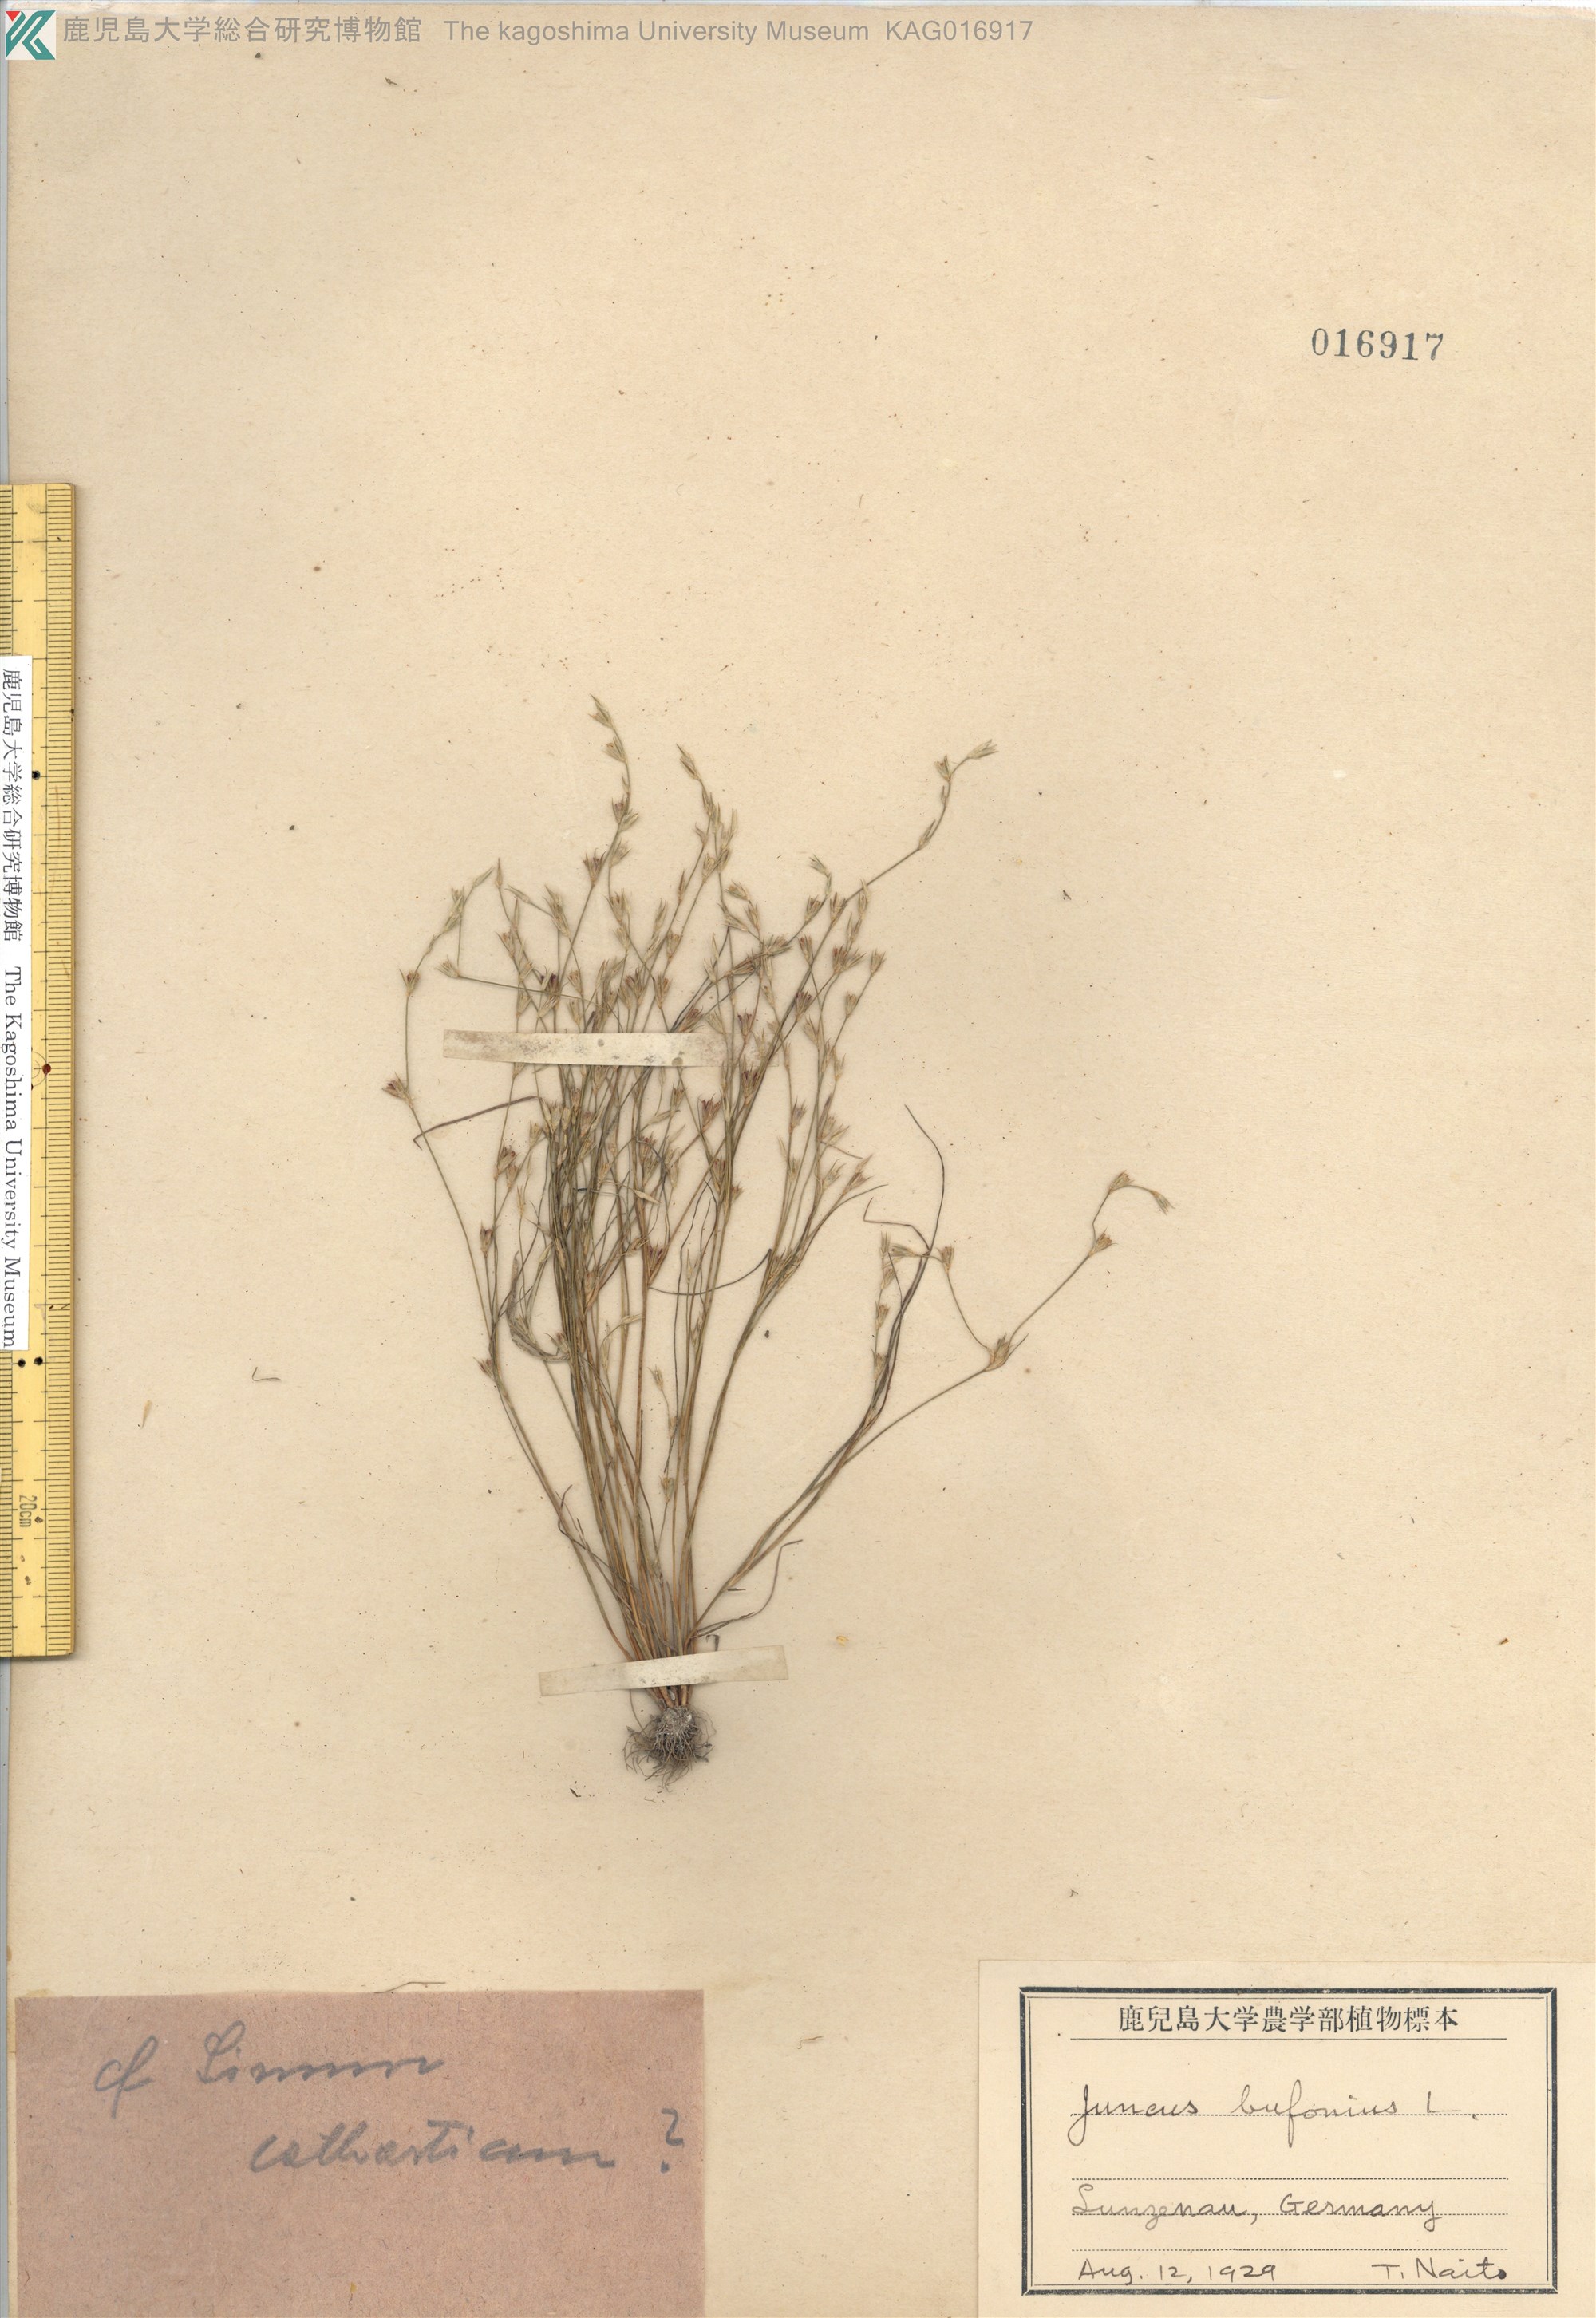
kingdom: Plantae
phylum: Tracheophyta
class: Liliopsida
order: Poales
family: Juncaceae
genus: Juncus
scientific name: Juncus bufonius
